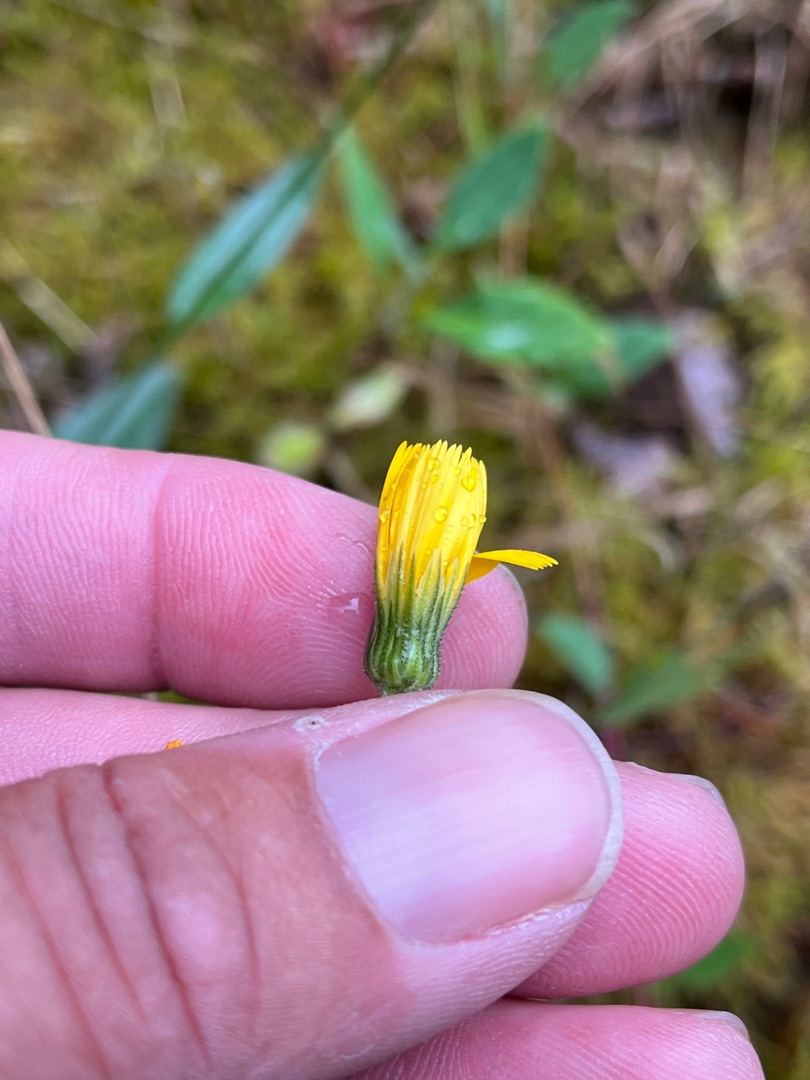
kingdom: Plantae
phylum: Tracheophyta
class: Magnoliopsida
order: Asterales
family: Asteraceae
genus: Hieracium
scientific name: Hieracium
